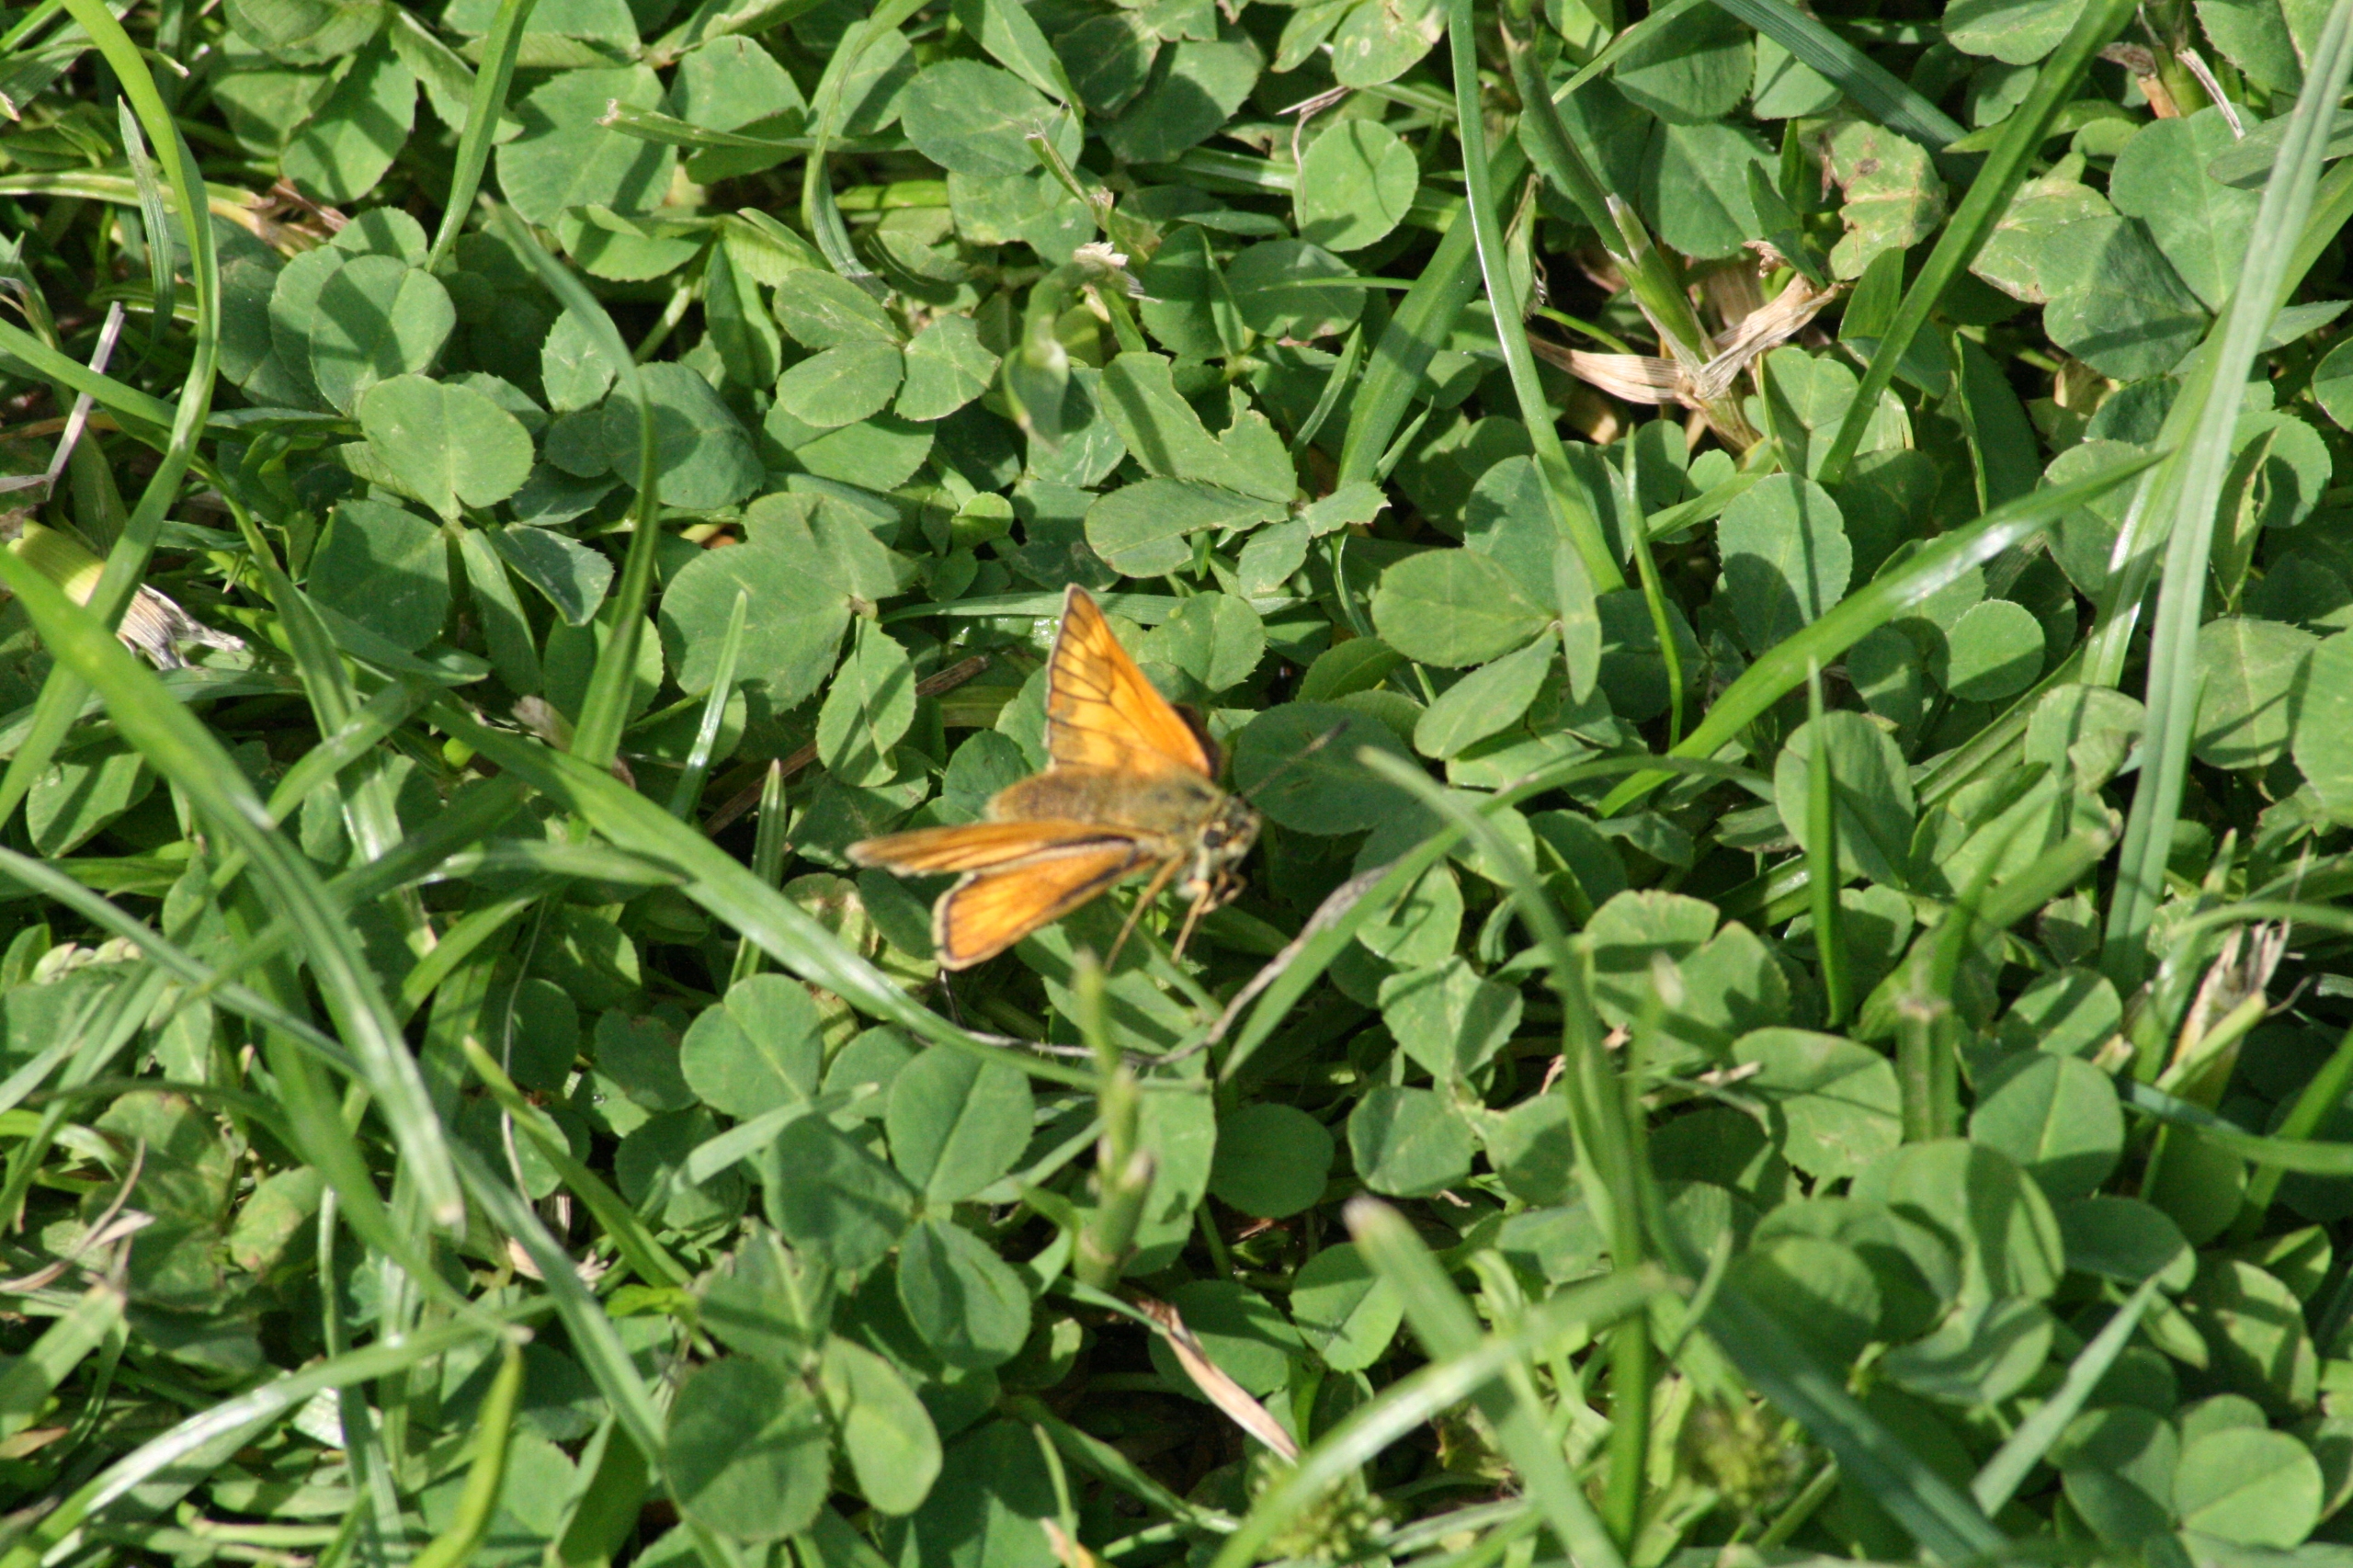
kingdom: Animalia
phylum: Arthropoda
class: Insecta
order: Lepidoptera
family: Hesperiidae
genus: Ochlodes
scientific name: Ochlodes venata
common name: Stor bredpande
